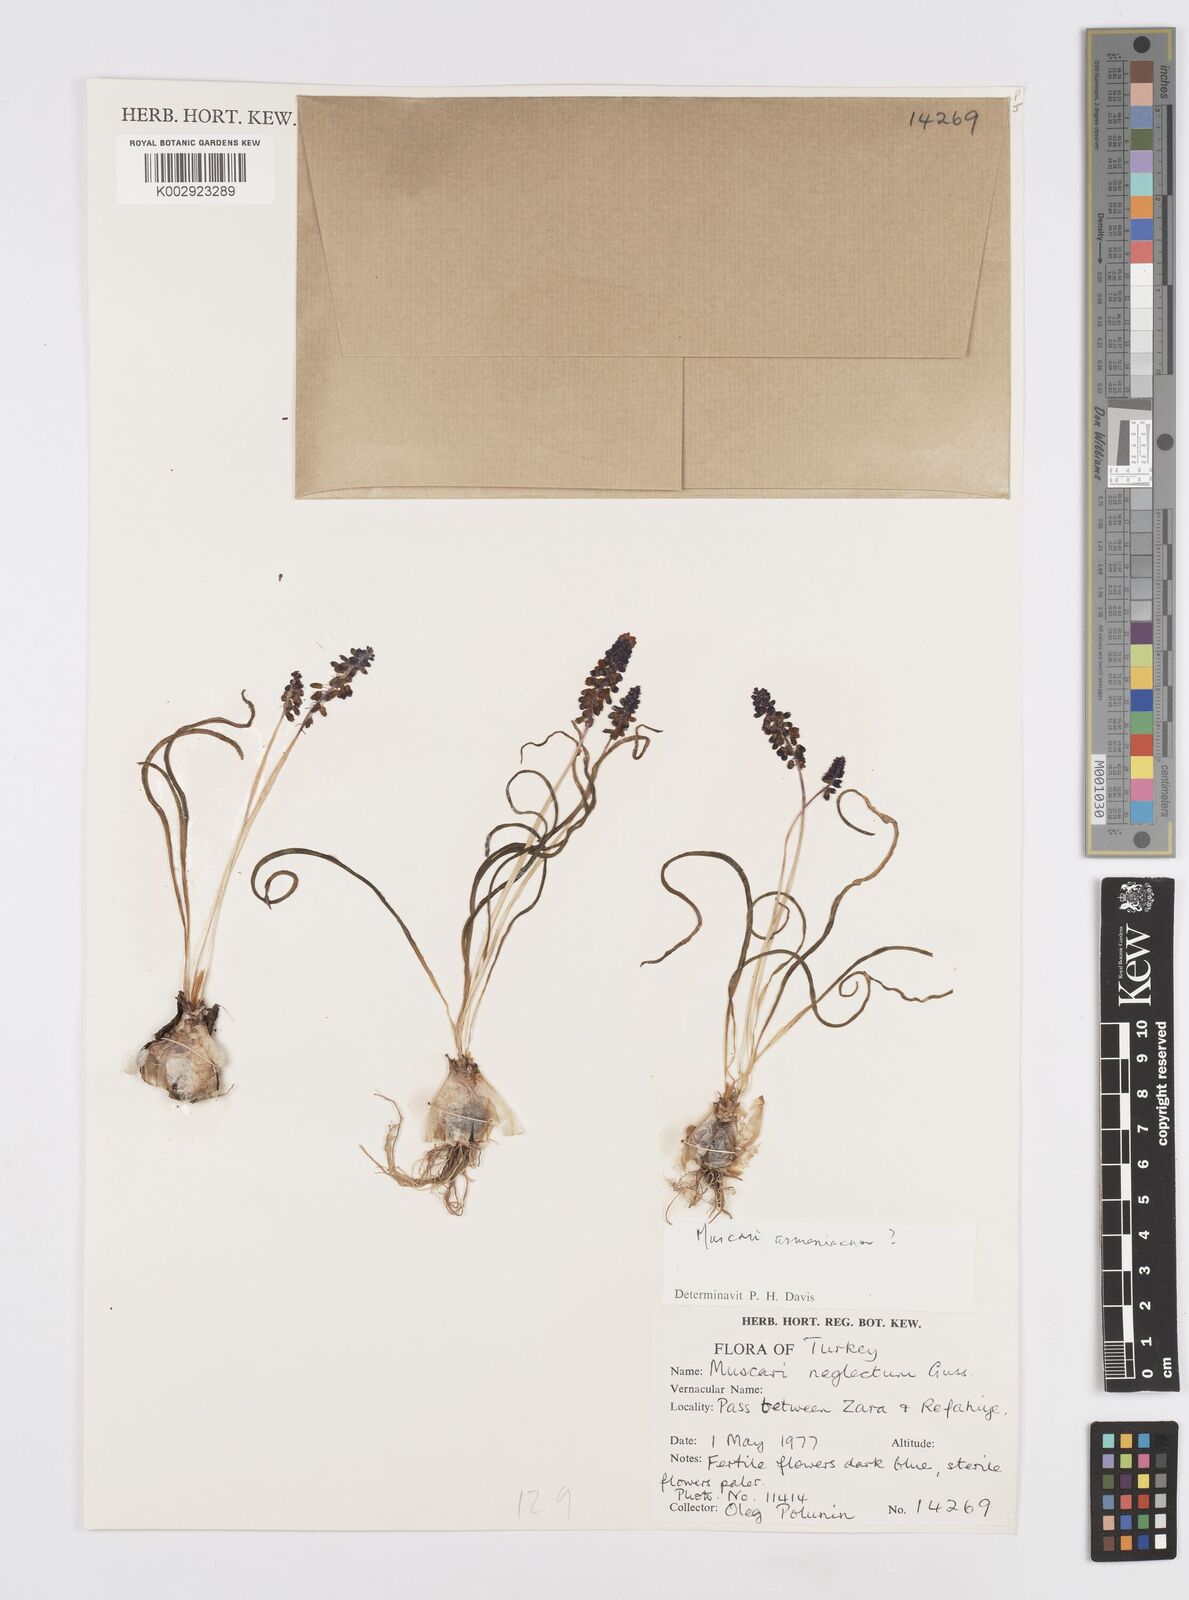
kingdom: Plantae
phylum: Tracheophyta
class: Liliopsida
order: Asparagales
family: Asparagaceae
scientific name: Asparagaceae
